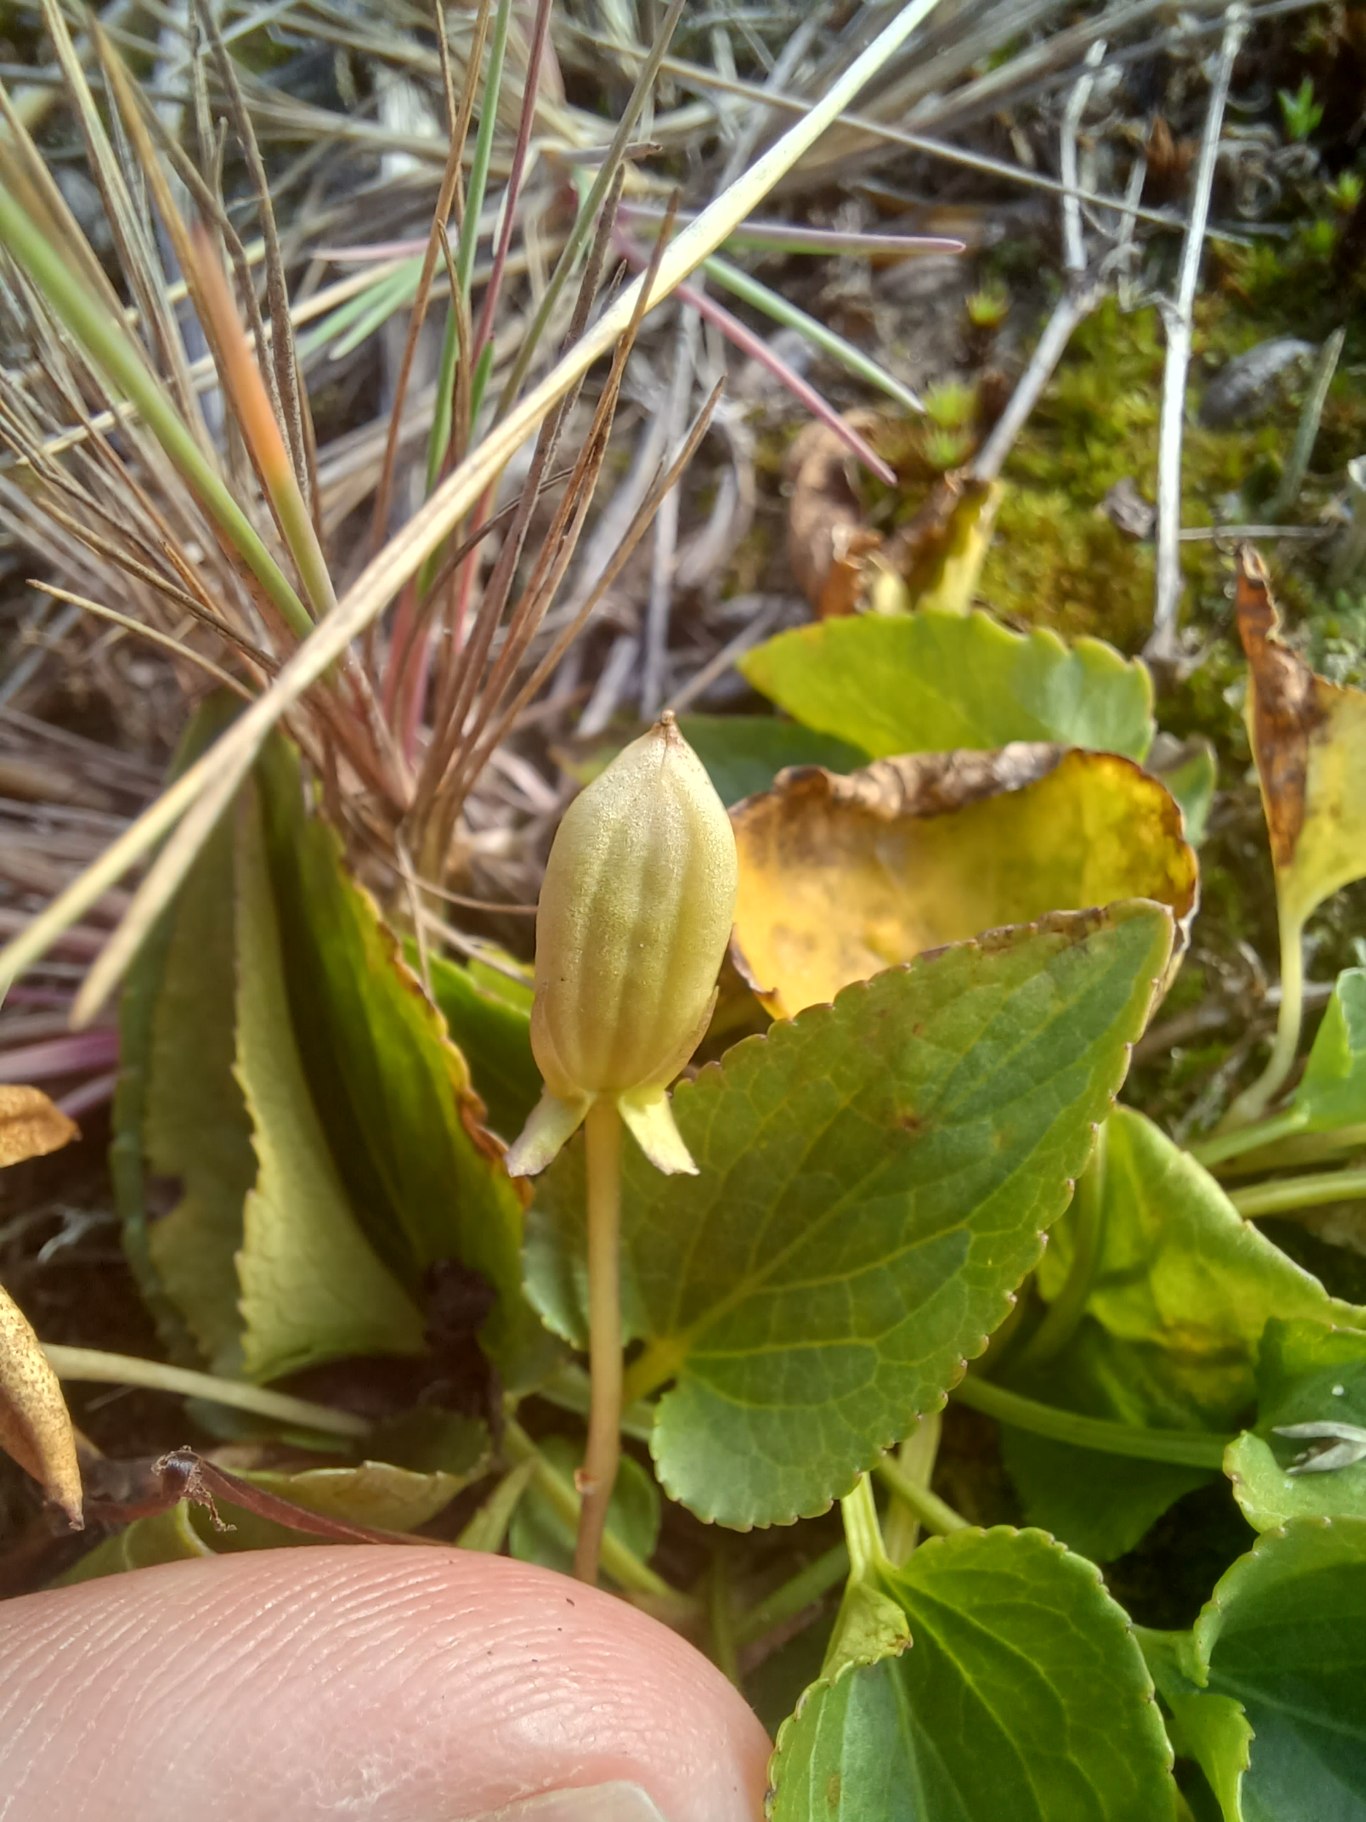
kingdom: Plantae
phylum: Tracheophyta
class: Magnoliopsida
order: Malpighiales
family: Violaceae
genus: Viola
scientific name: Viola canina
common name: Hunde-viol
